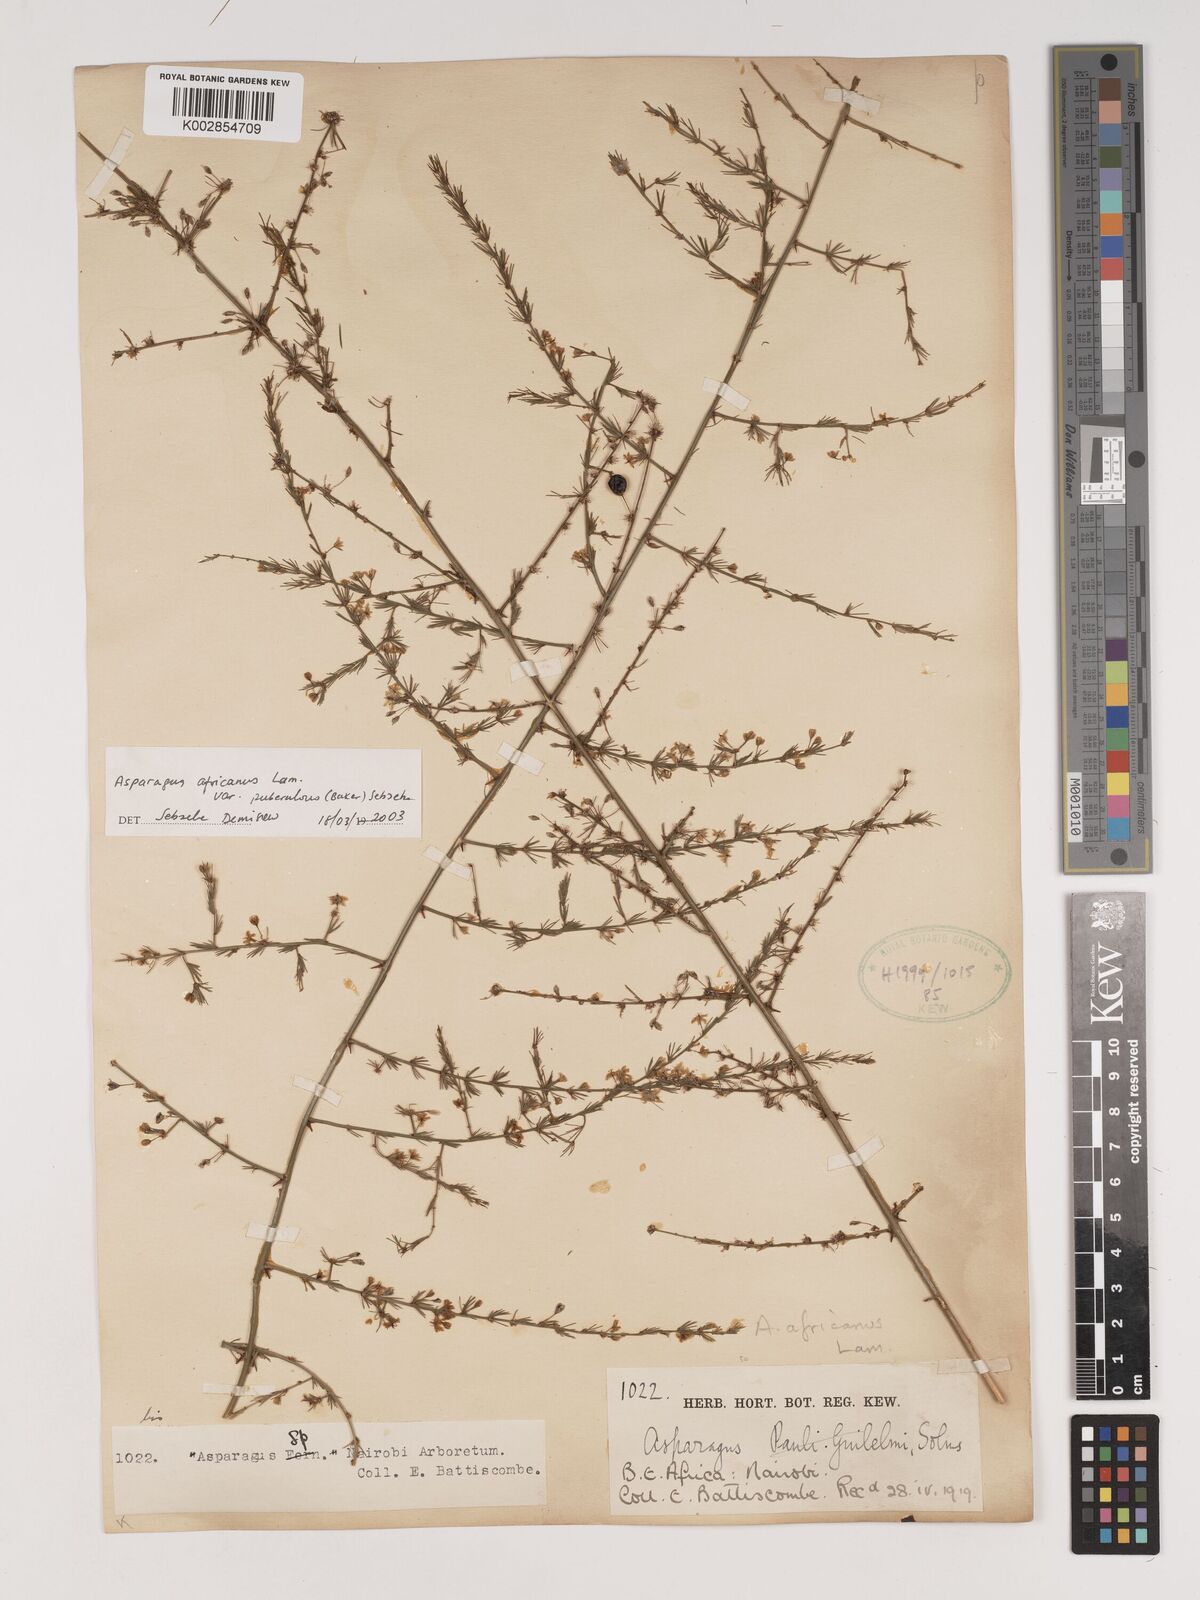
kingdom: Plantae
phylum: Tracheophyta
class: Liliopsida
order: Asparagales
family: Asparagaceae
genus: Asparagus
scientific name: Asparagus africanus
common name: Asparagus-fern
